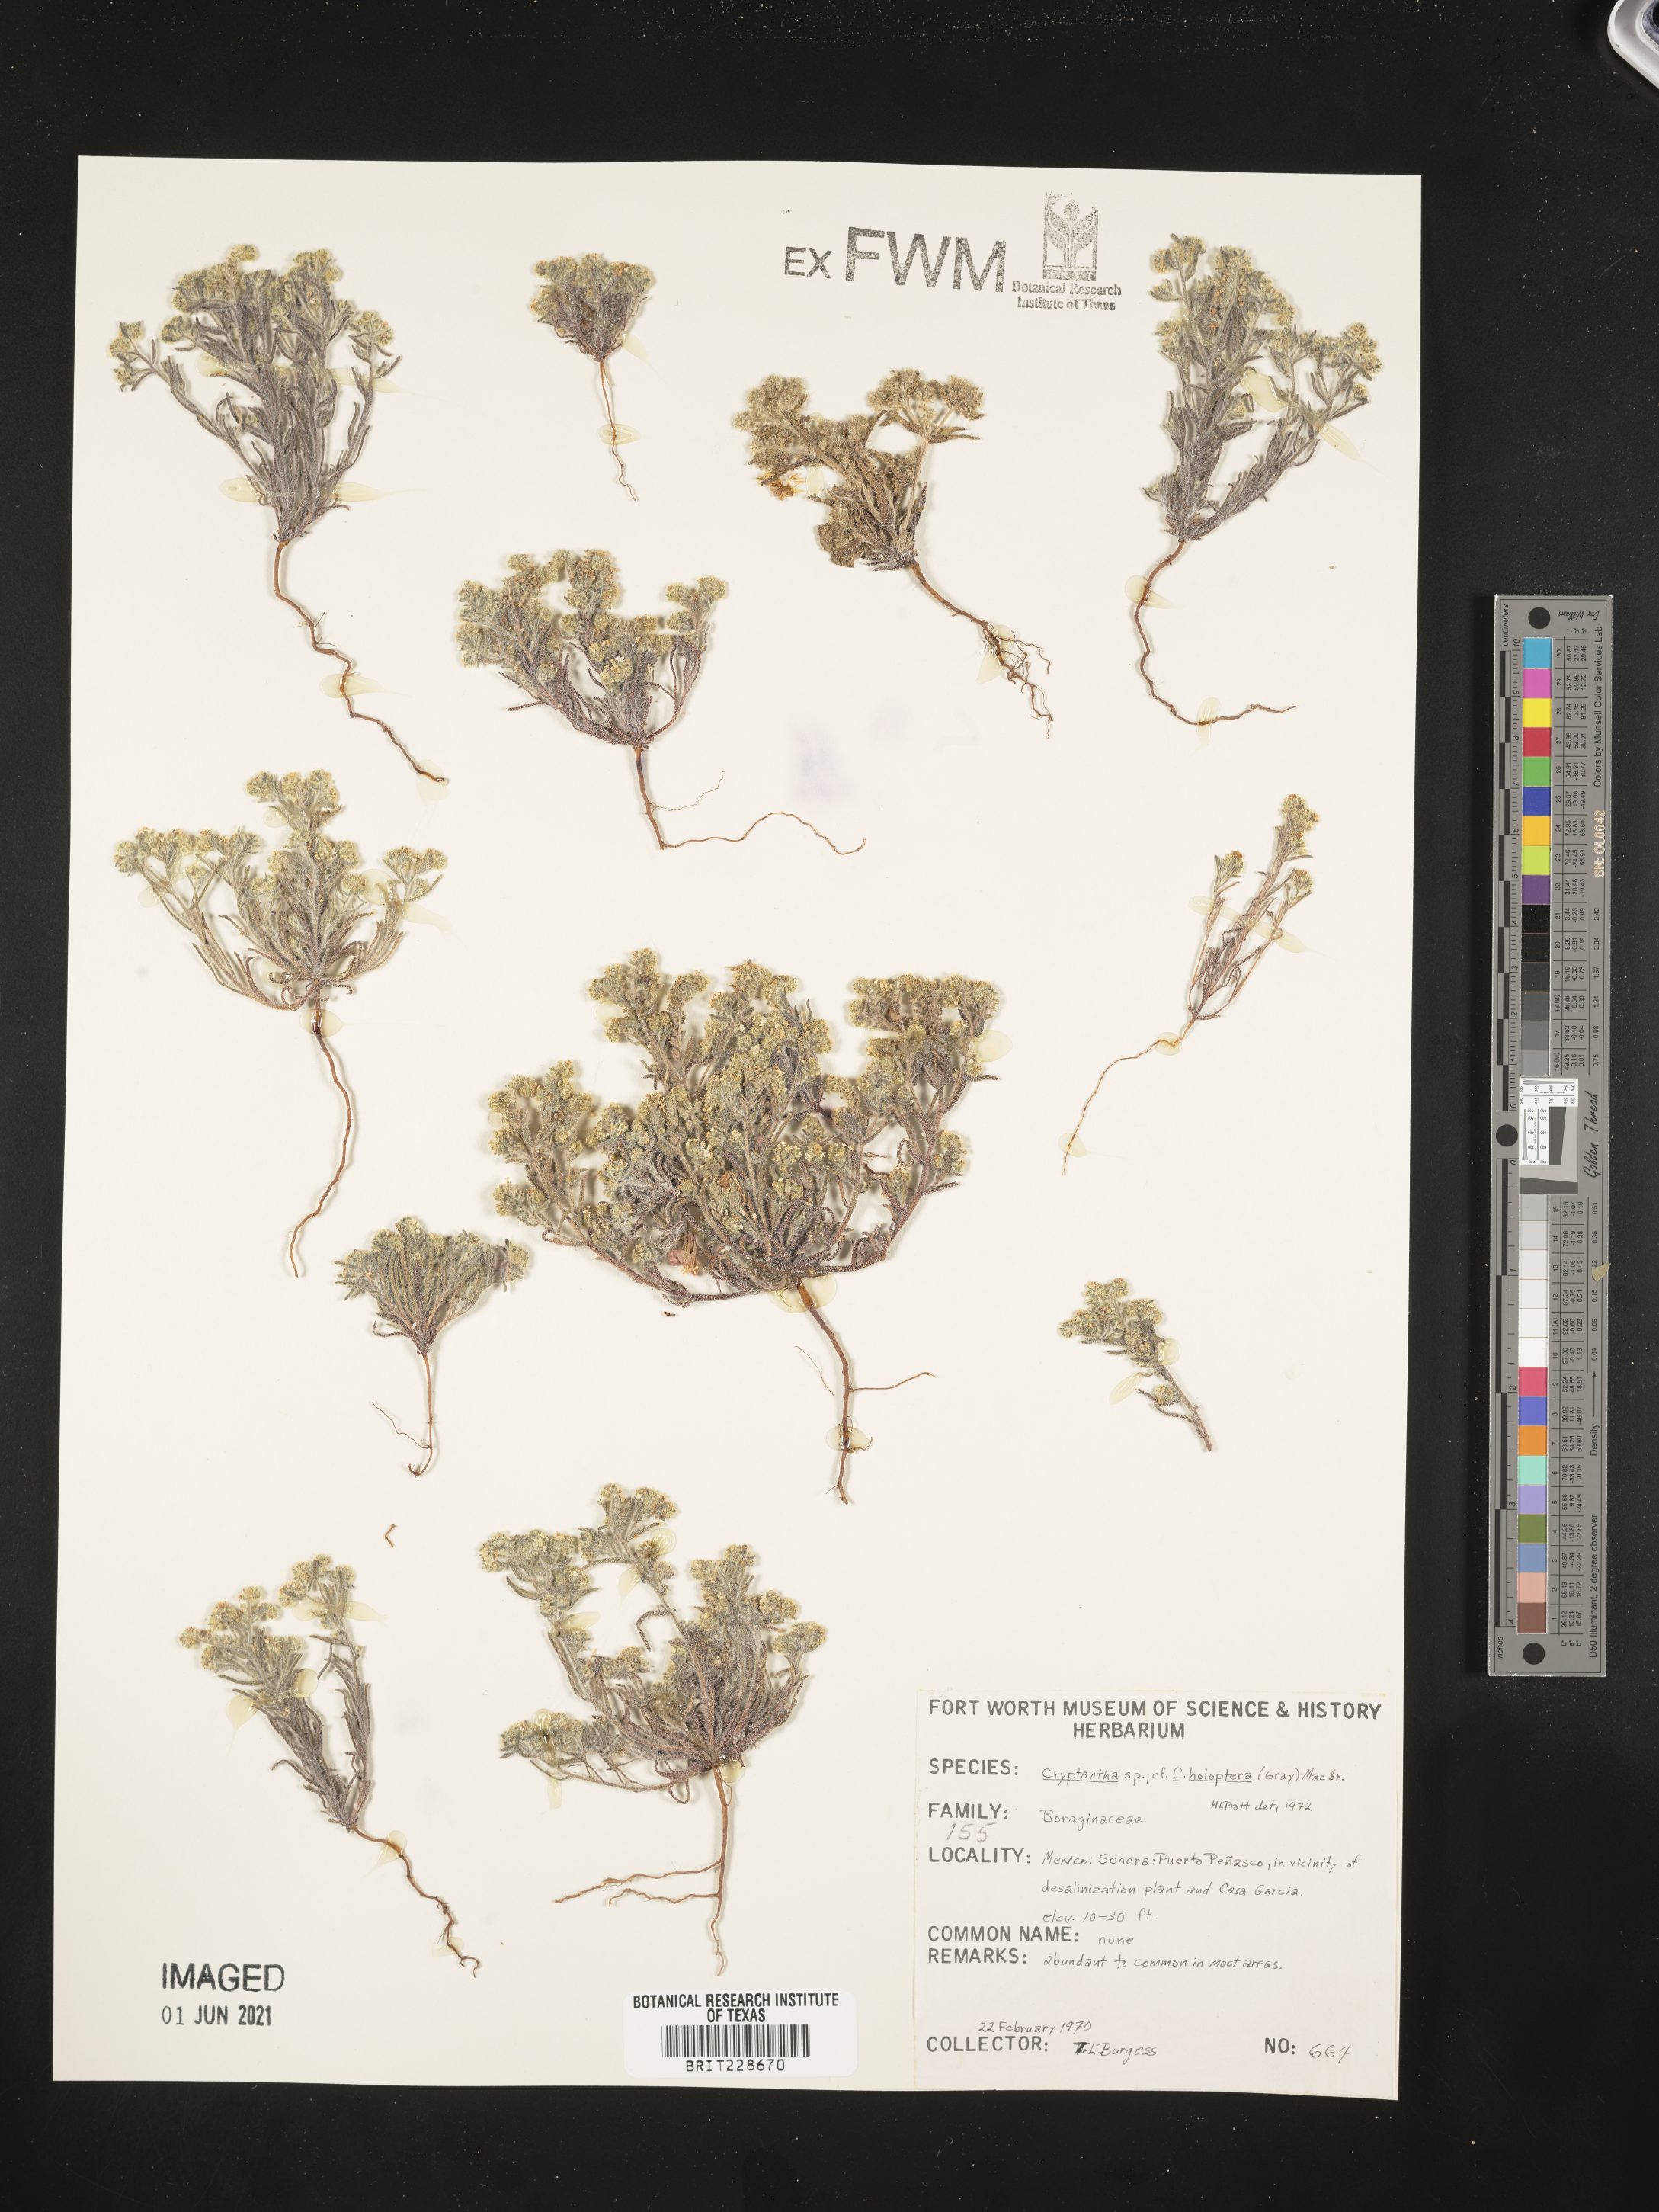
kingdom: Plantae
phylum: Tracheophyta
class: Magnoliopsida
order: Boraginales
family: Boraginaceae
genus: Johnstonella
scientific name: Johnstonella holoptera
